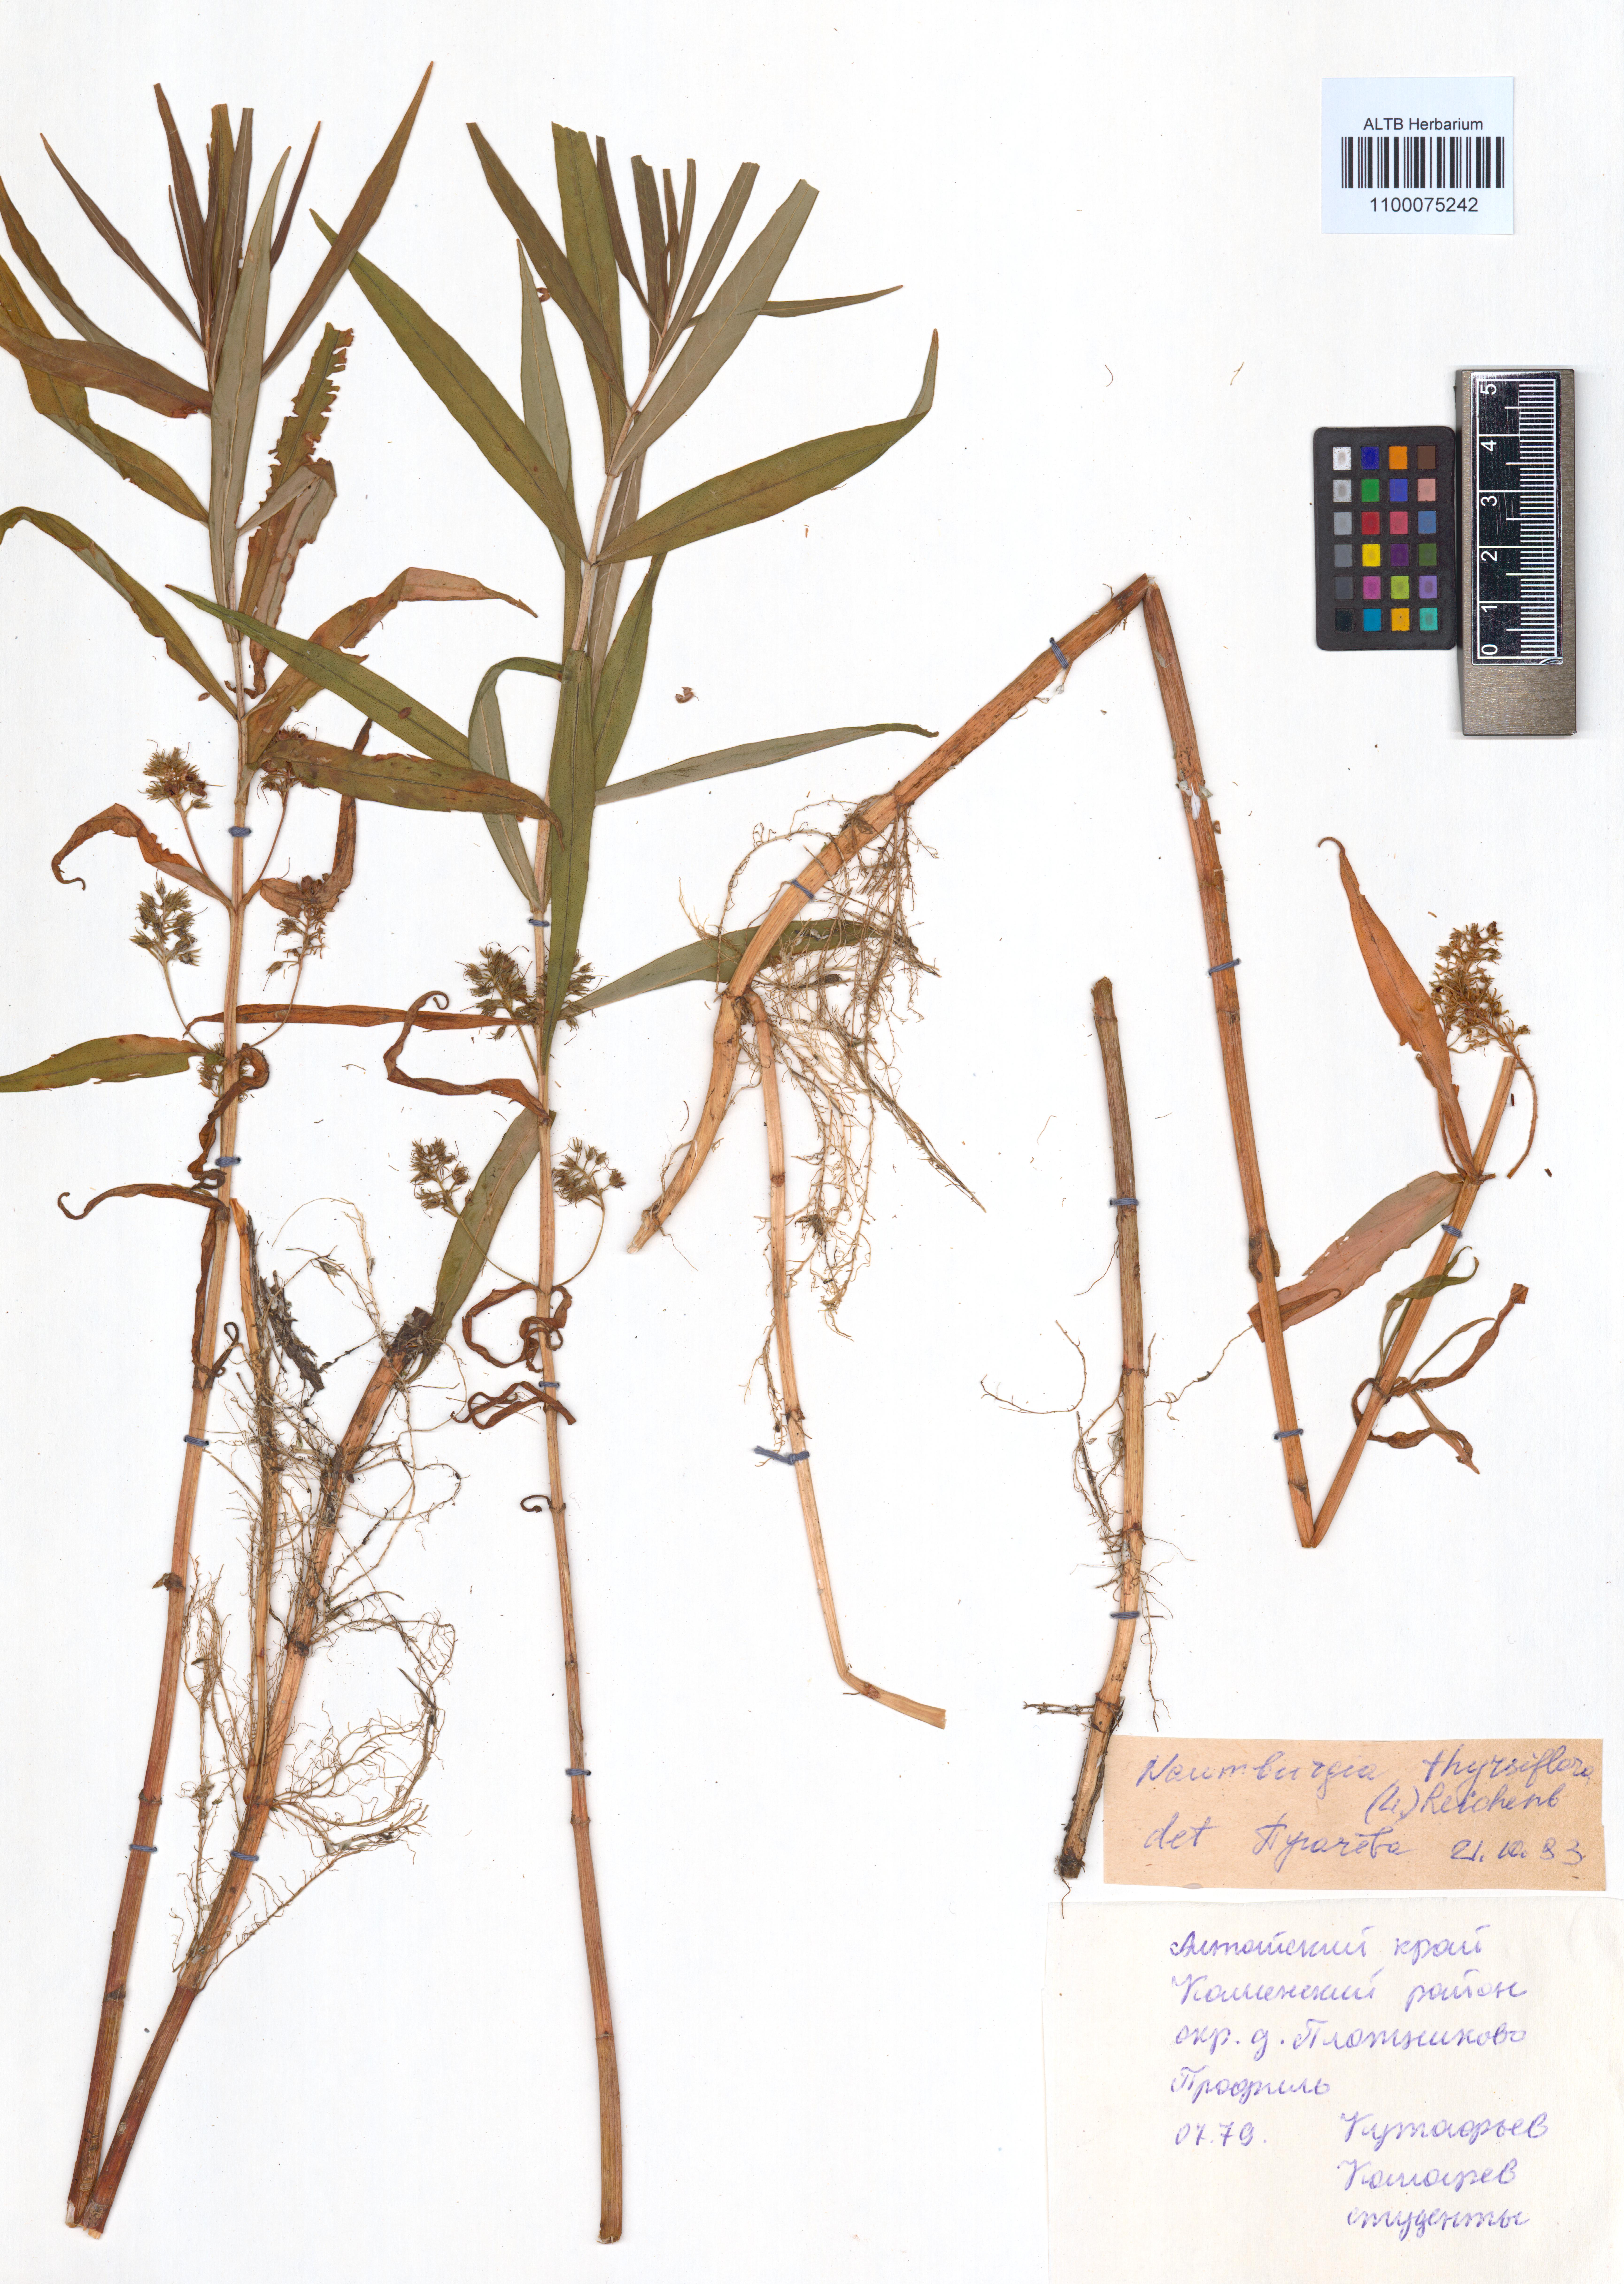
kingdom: Plantae
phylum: Tracheophyta
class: Magnoliopsida
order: Ericales
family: Primulaceae
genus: Lysimachia
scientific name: Lysimachia thyrsiflora
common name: Tufted loosestrife
